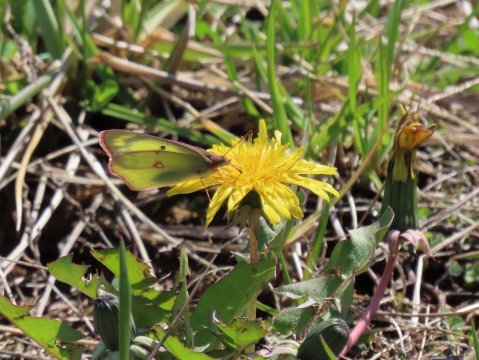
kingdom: Animalia
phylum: Arthropoda
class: Insecta
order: Lepidoptera
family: Pieridae
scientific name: Pieridae
